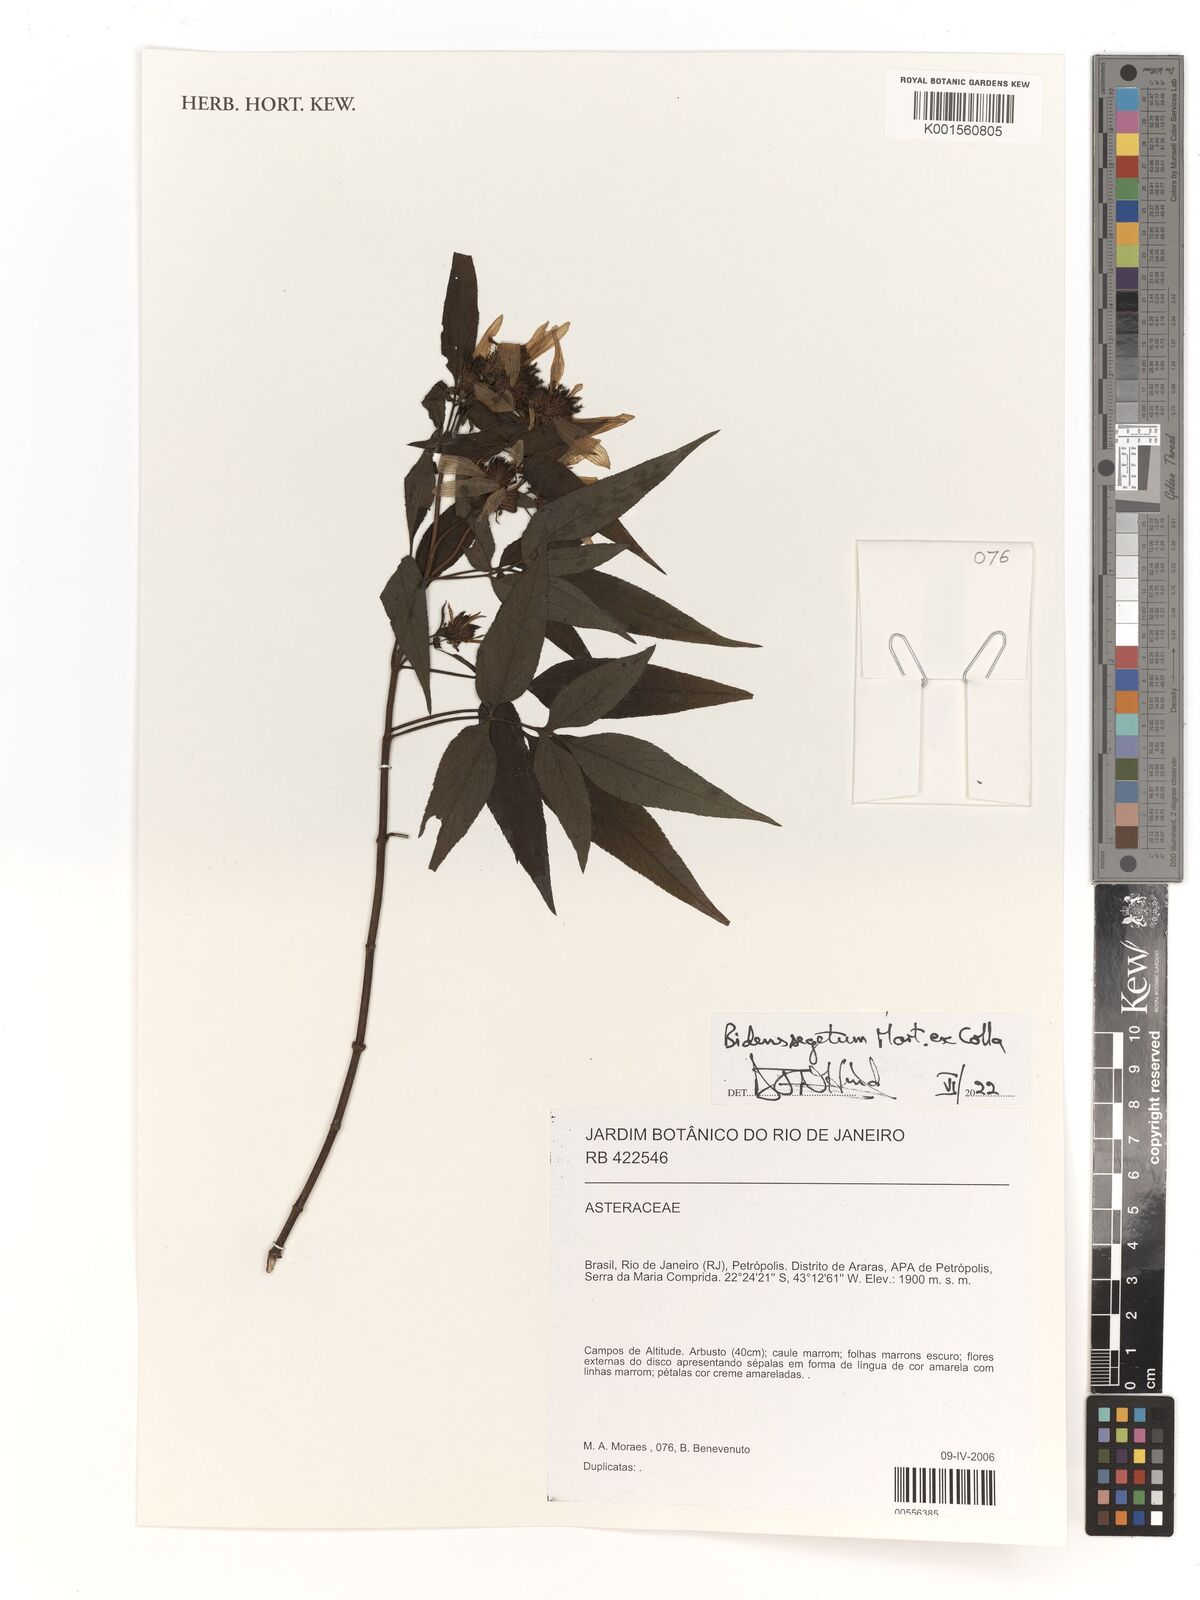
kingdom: Plantae
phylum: Tracheophyta
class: Magnoliopsida
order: Asterales
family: Asteraceae
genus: Bidens
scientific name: Bidens segetum
